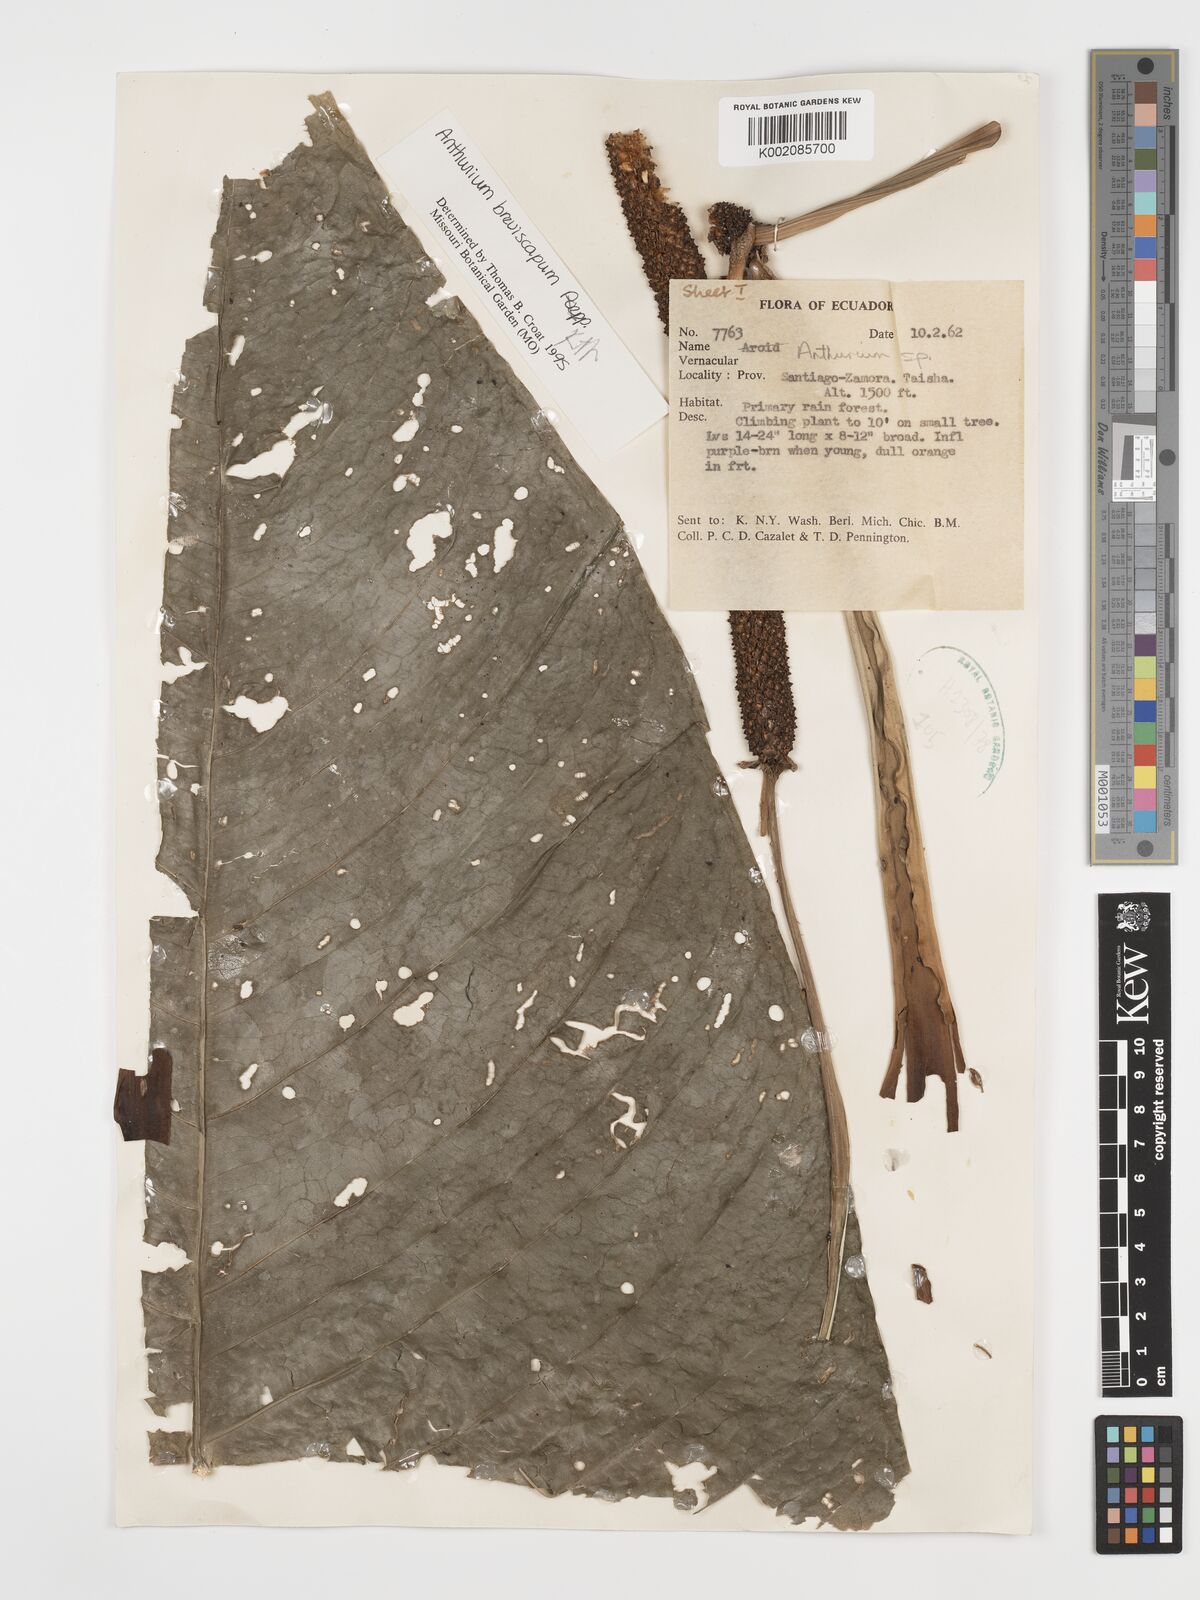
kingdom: Plantae
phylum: Tracheophyta
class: Liliopsida
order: Alismatales
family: Araceae
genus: Anthurium
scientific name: Anthurium breviscapum
